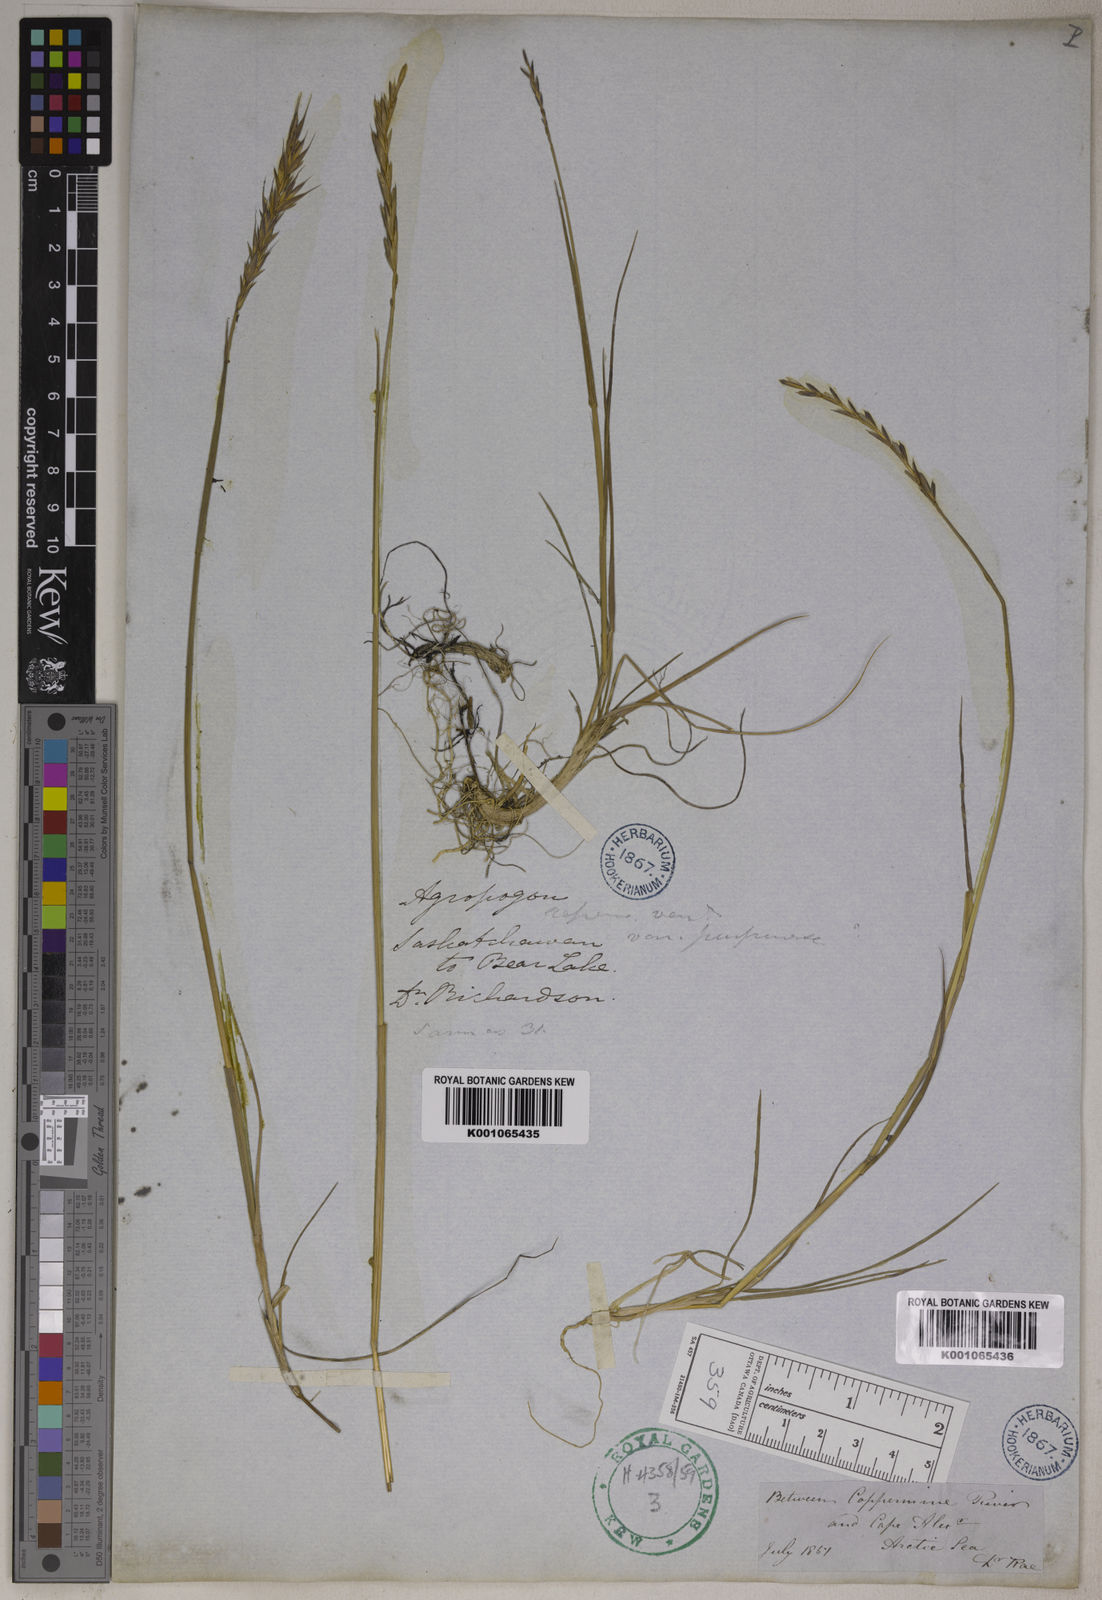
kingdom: Plantae
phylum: Tracheophyta
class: Liliopsida
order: Poales
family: Poaceae
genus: Elymus
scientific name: Elymus repens
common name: Quackgrass
